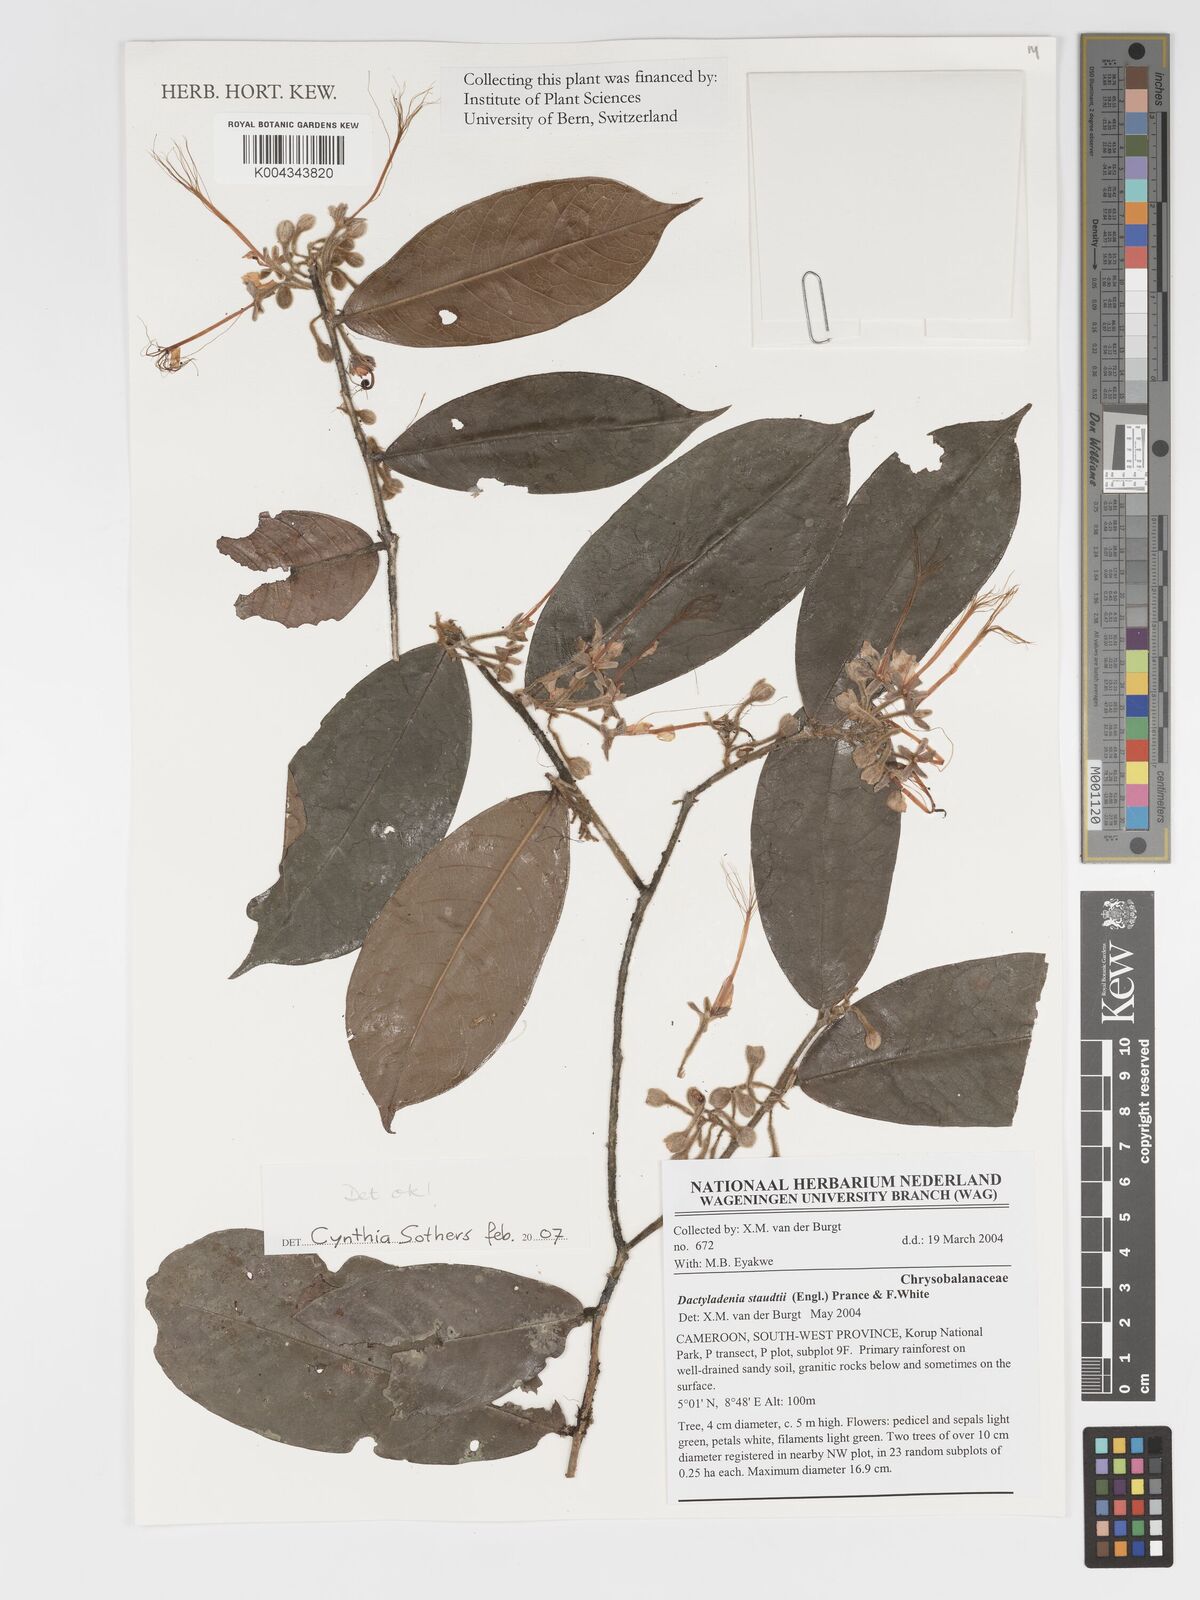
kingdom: Plantae
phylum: Tracheophyta
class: Magnoliopsida
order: Malpighiales
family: Chrysobalanaceae
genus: Dactyladenia
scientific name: Dactyladenia staudtii
